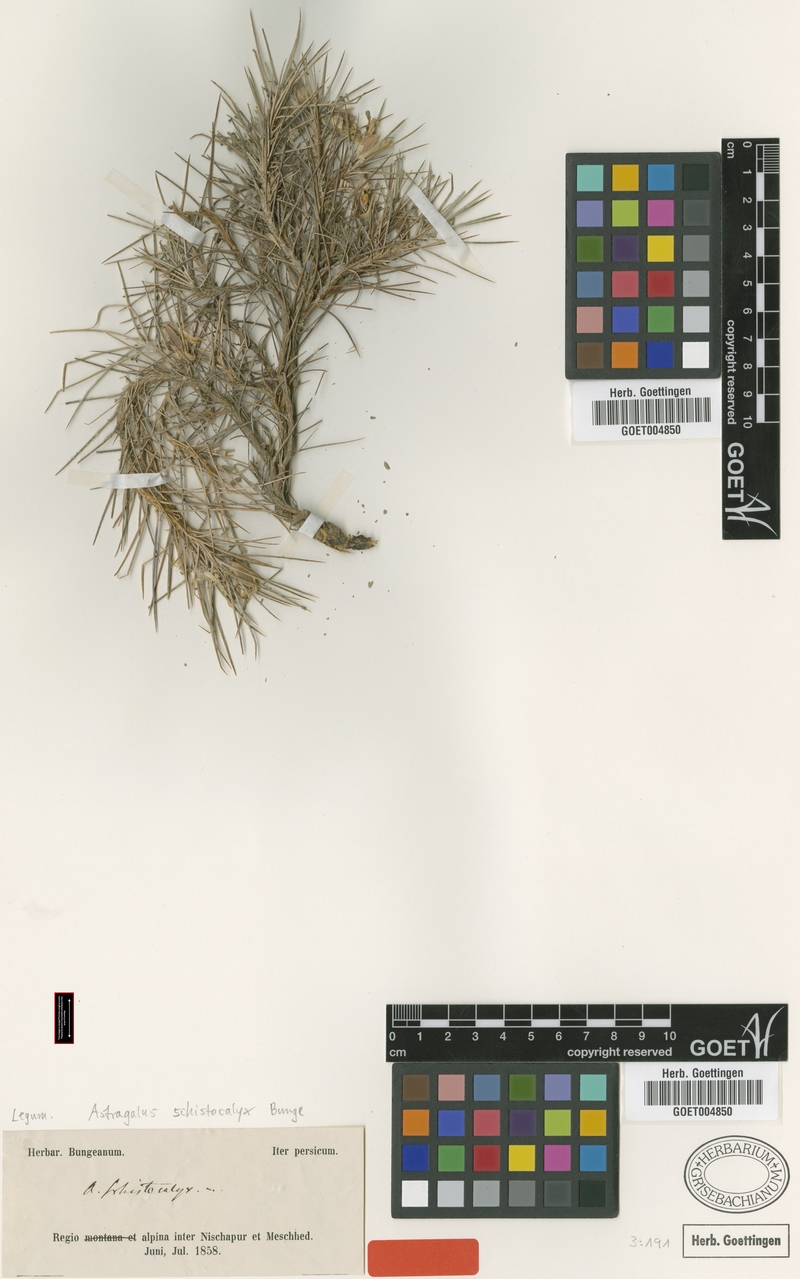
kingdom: Plantae
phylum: Tracheophyta
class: Magnoliopsida
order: Fabales
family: Fabaceae
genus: Astragalus
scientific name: Astragalus lycioides
